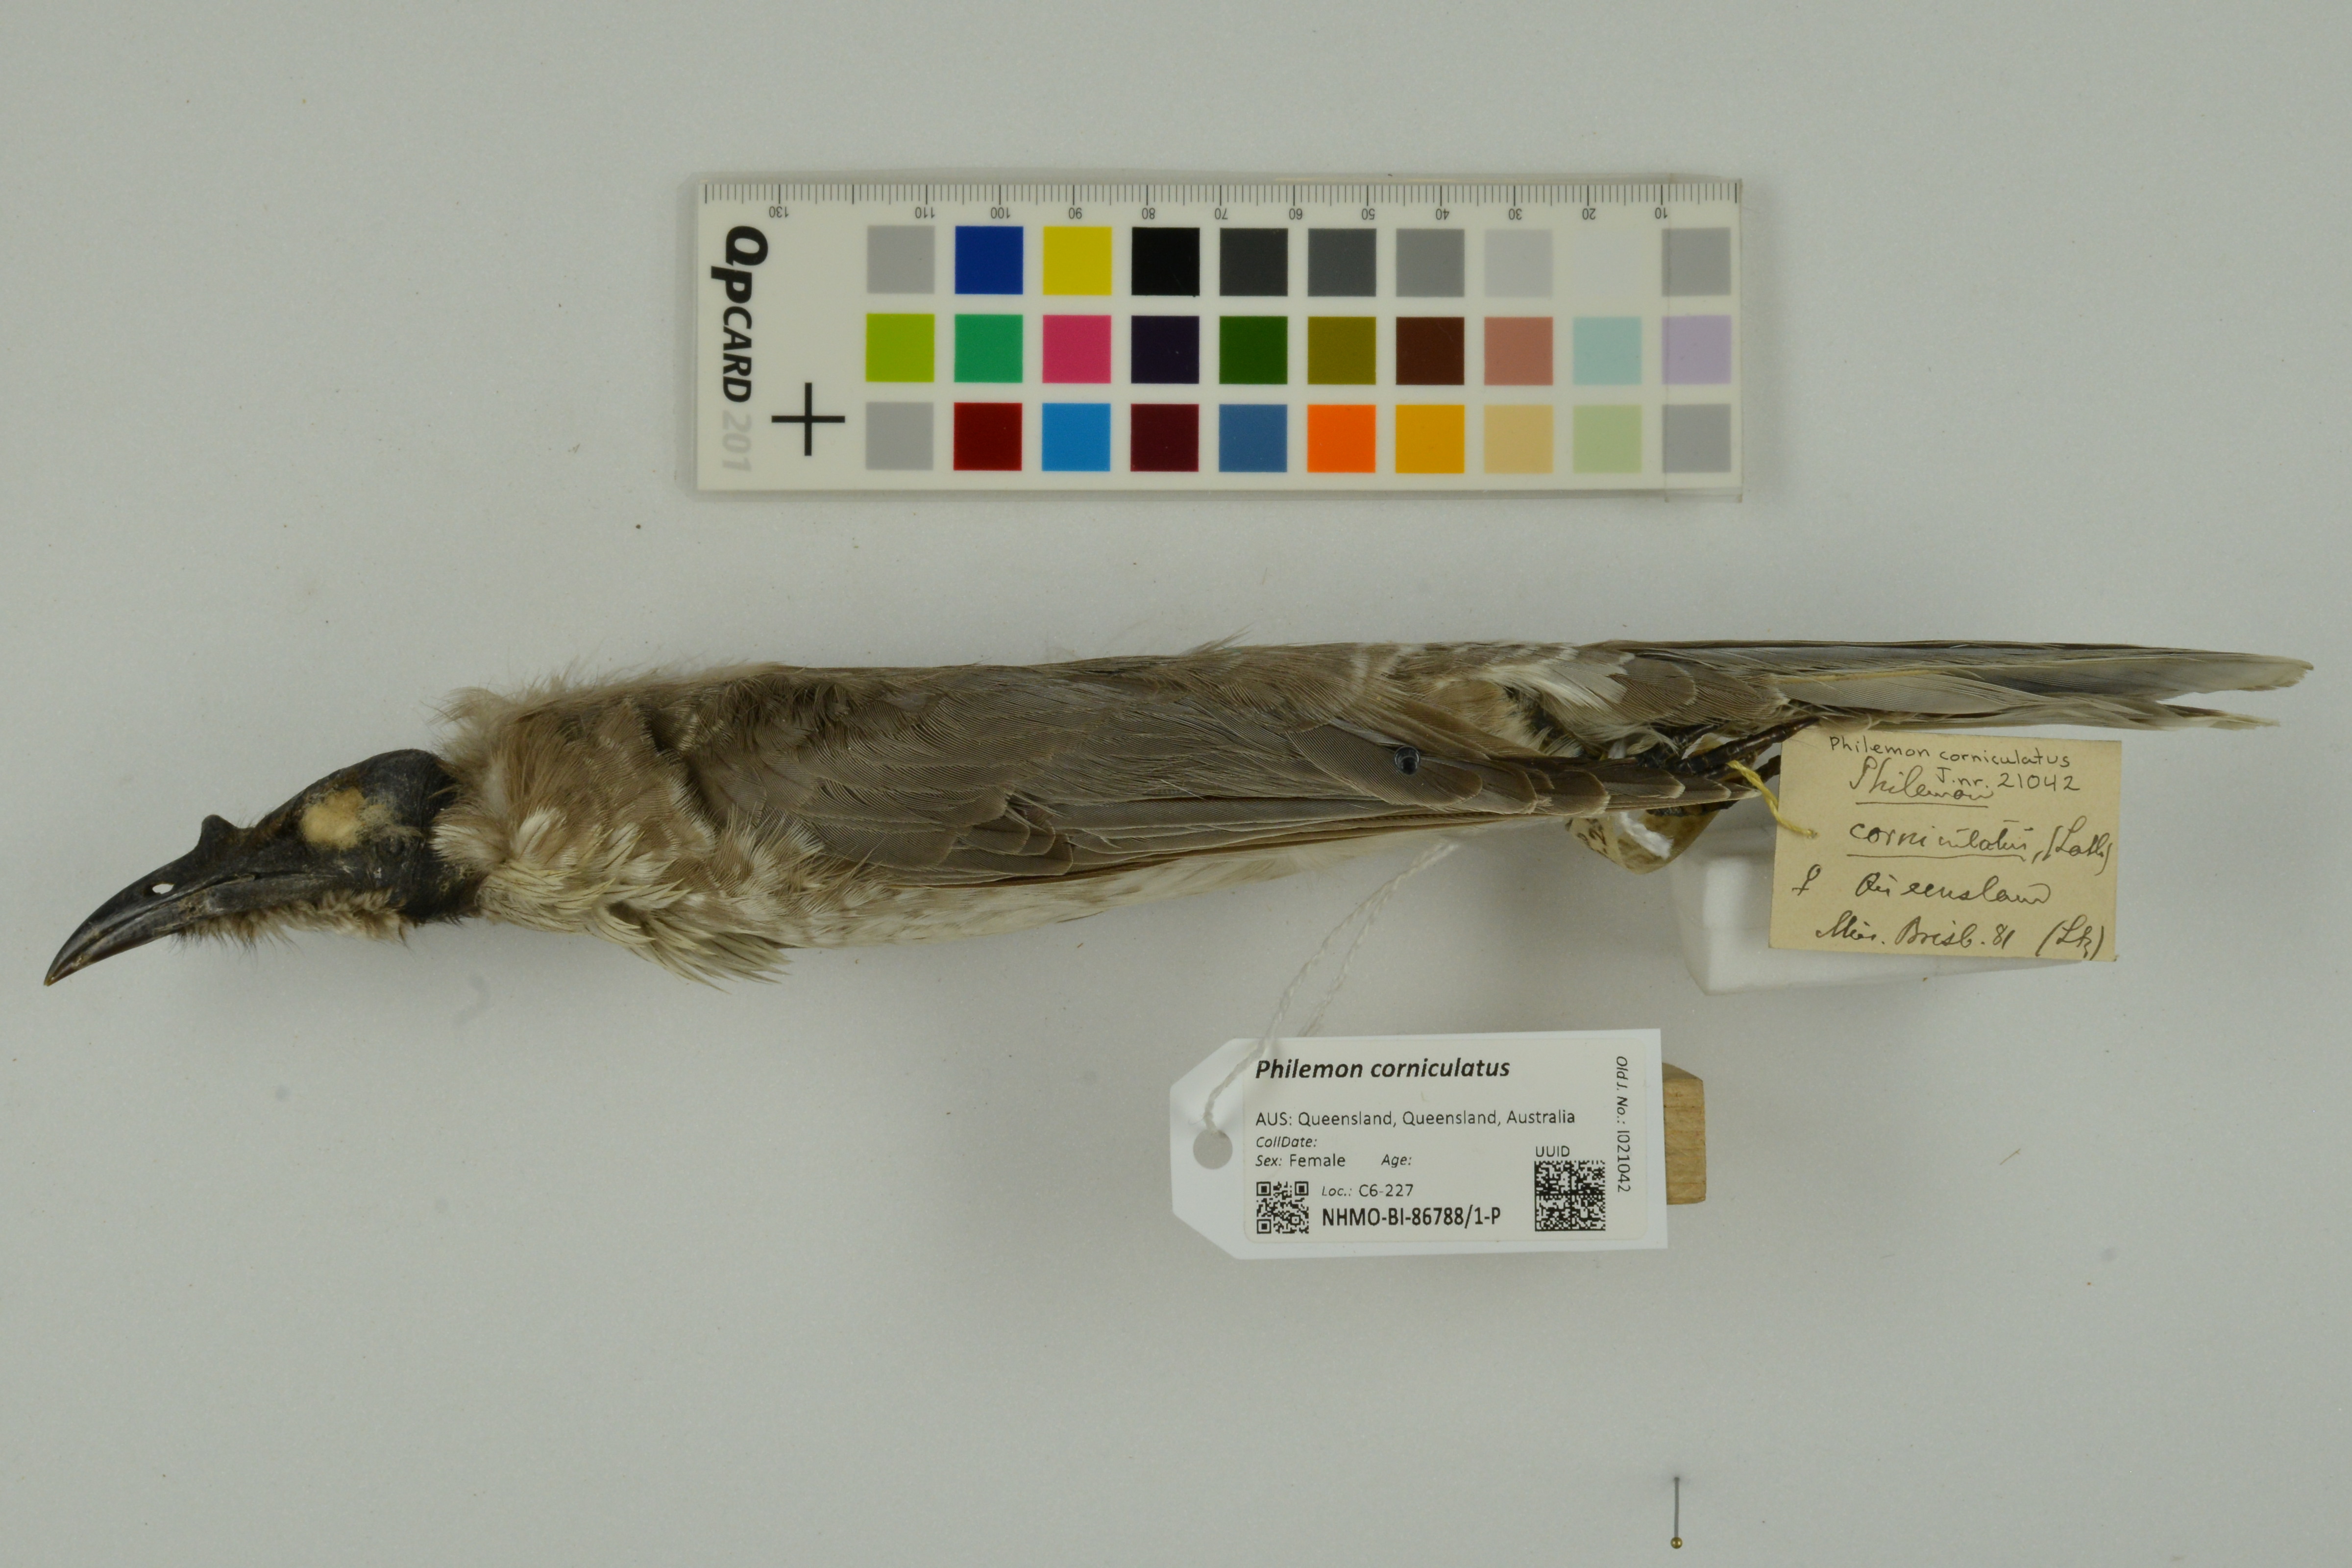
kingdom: Animalia
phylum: Chordata
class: Aves
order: Passeriformes
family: Meliphagidae
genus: Philemon
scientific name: Philemon corniculatus
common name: Noisy friarbird
